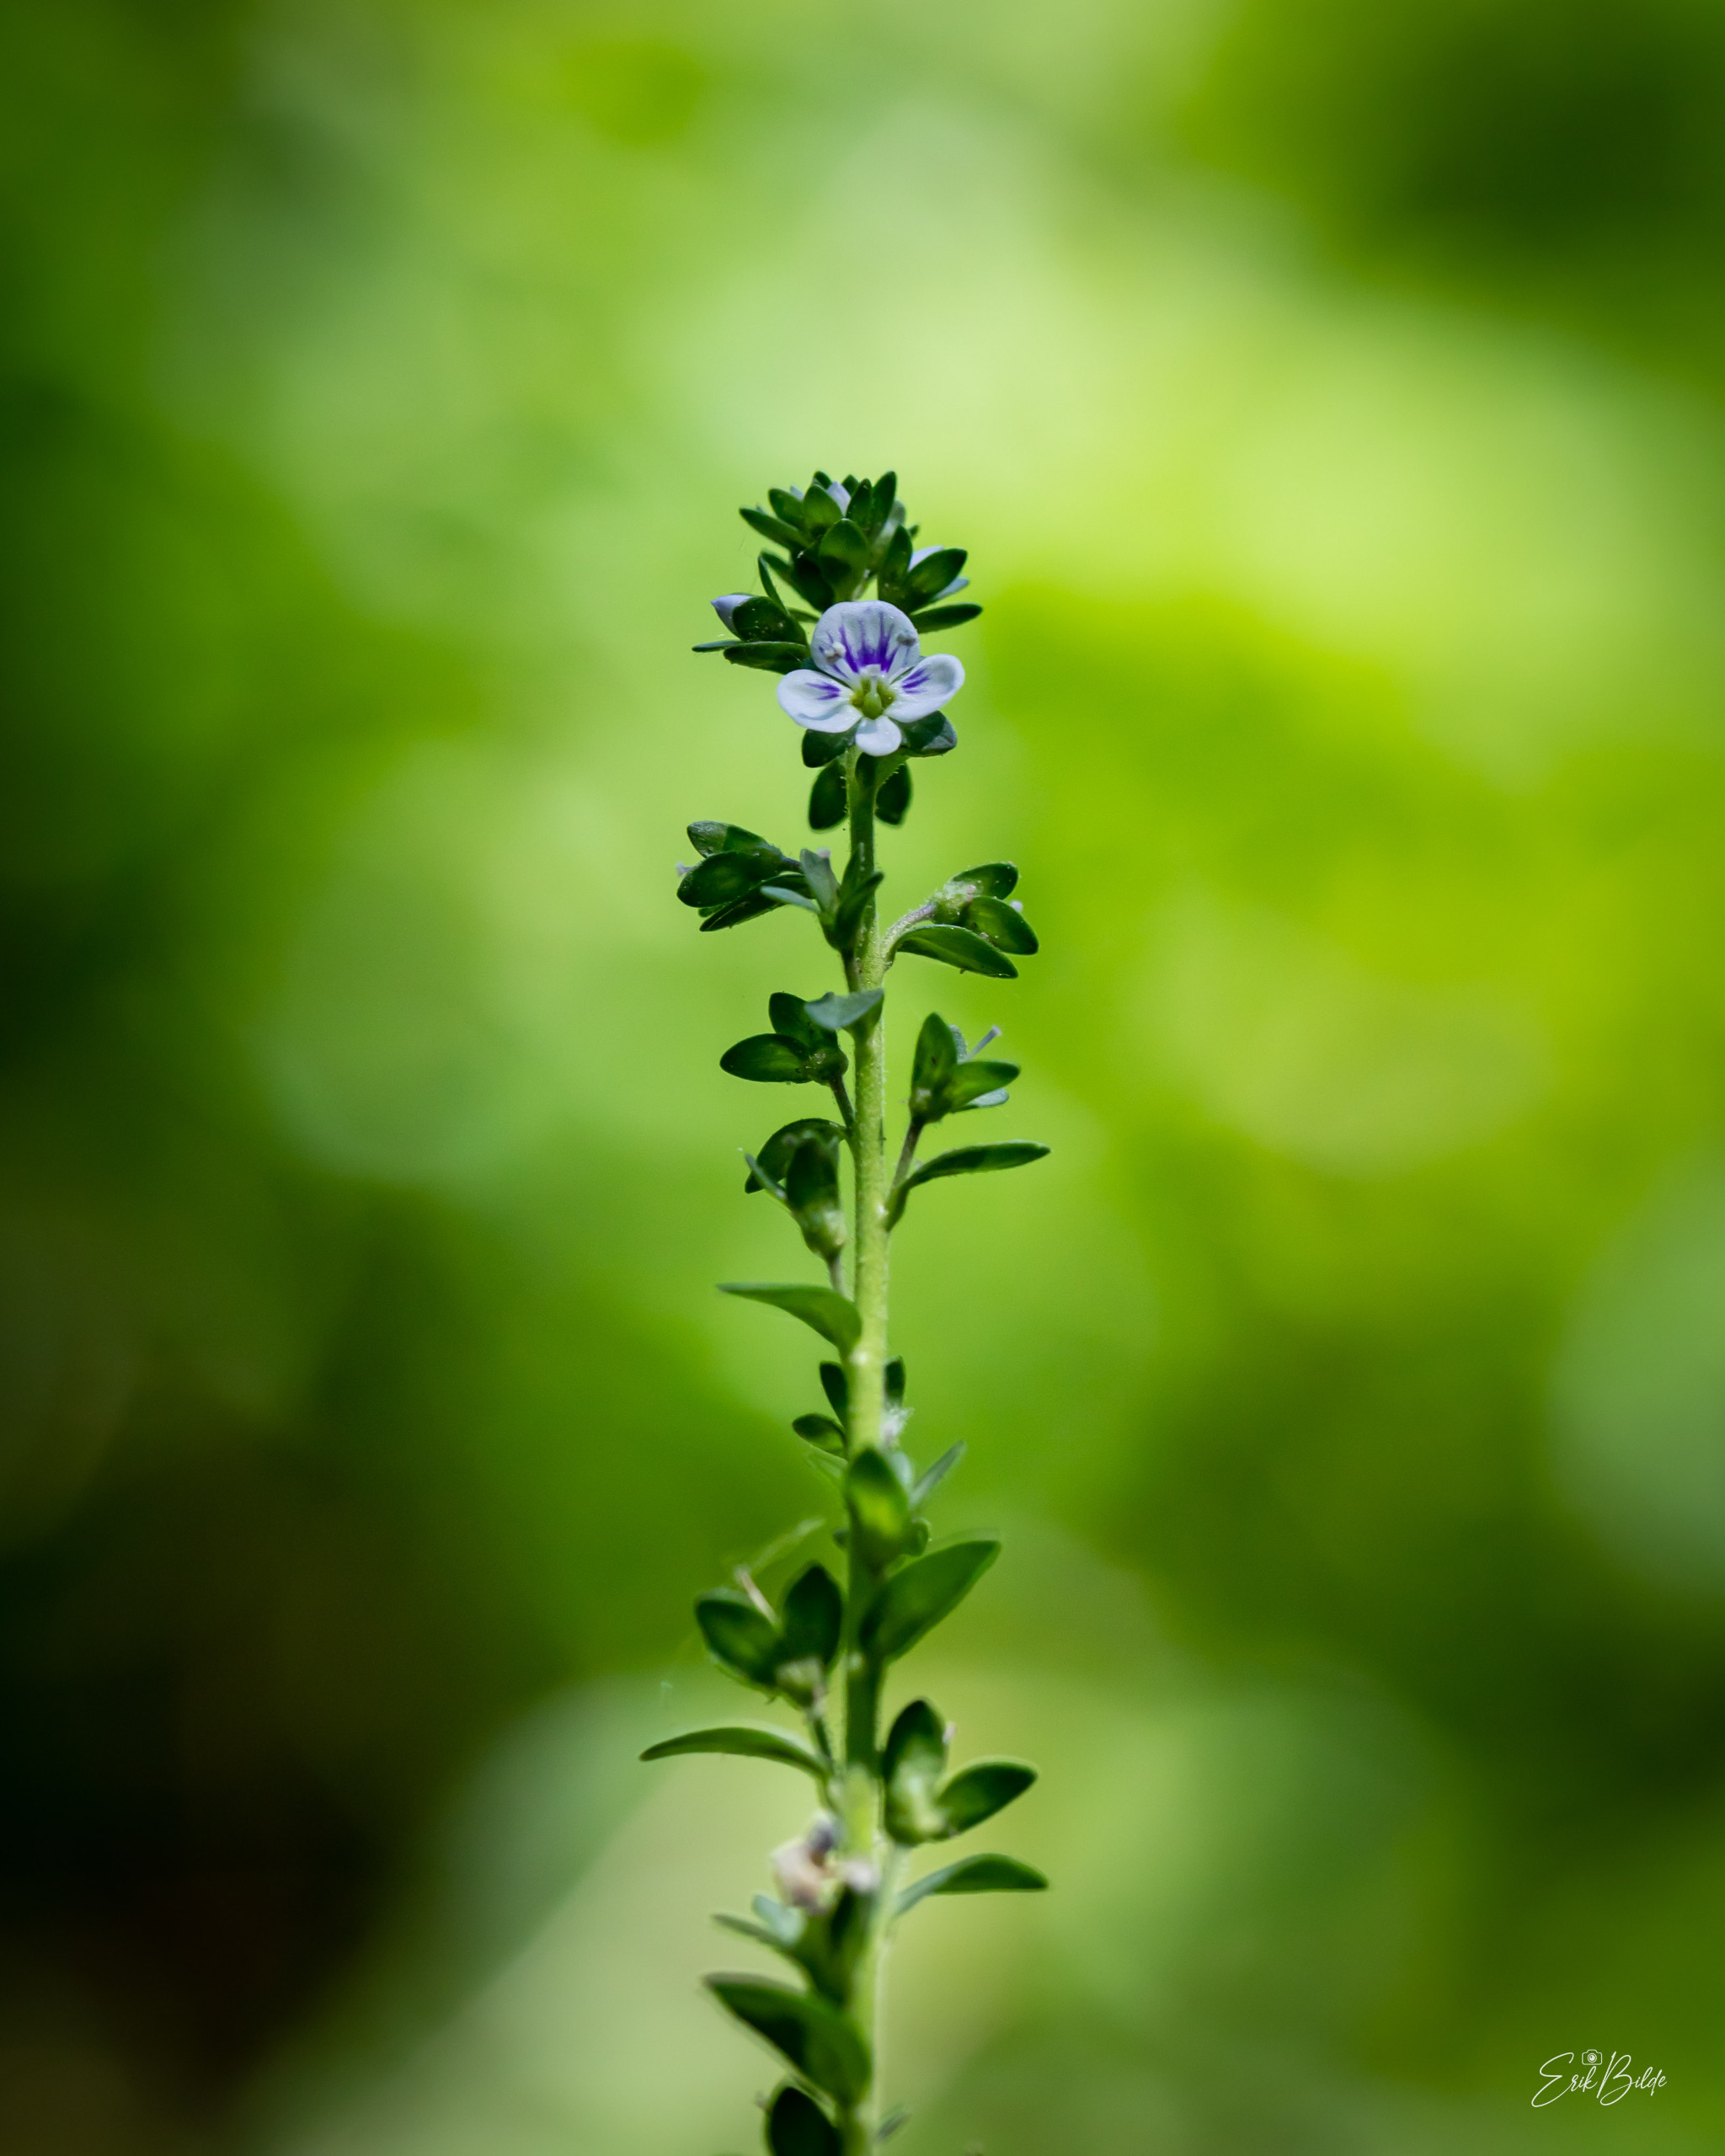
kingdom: Plantae
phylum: Tracheophyta
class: Magnoliopsida
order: Lamiales
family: Plantaginaceae
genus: Veronica
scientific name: Veronica serpyllifolia
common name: Glat ærenpris
